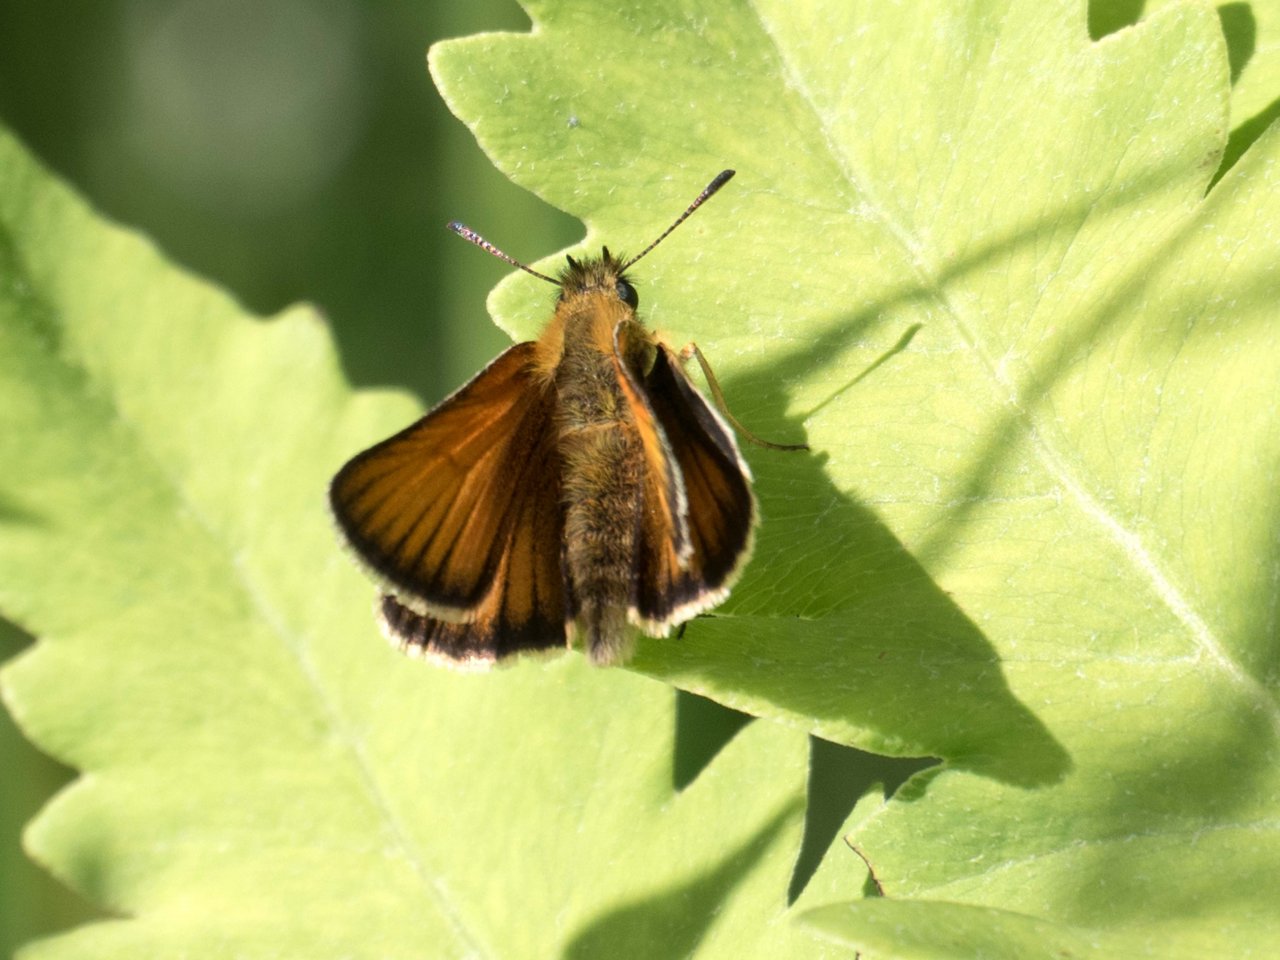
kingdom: Animalia
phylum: Arthropoda
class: Insecta
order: Lepidoptera
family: Hesperiidae
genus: Thymelicus
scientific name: Thymelicus lineola
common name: European Skipper
